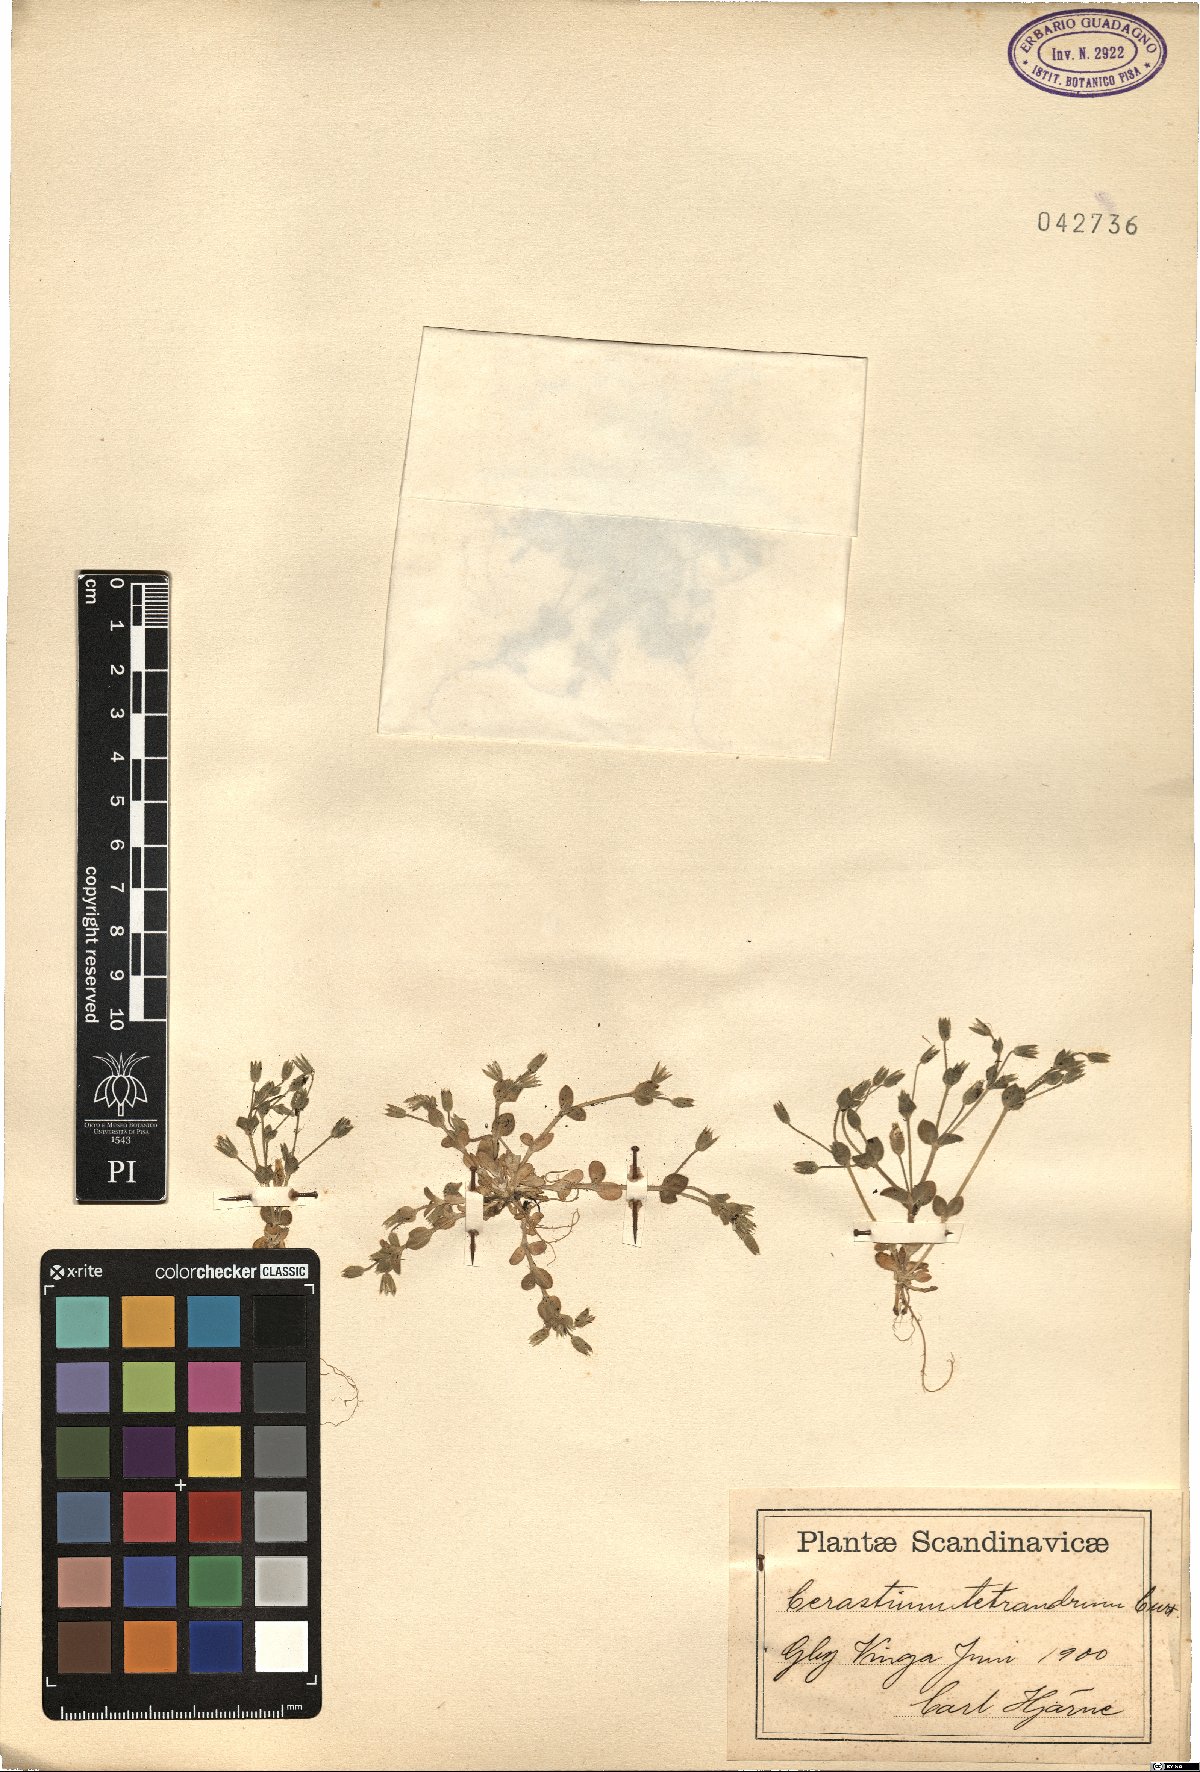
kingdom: Plantae
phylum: Tracheophyta
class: Magnoliopsida
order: Caryophyllales
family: Caryophyllaceae
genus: Cerastium
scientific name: Cerastium diffusum
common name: Fourstamen chickweed
